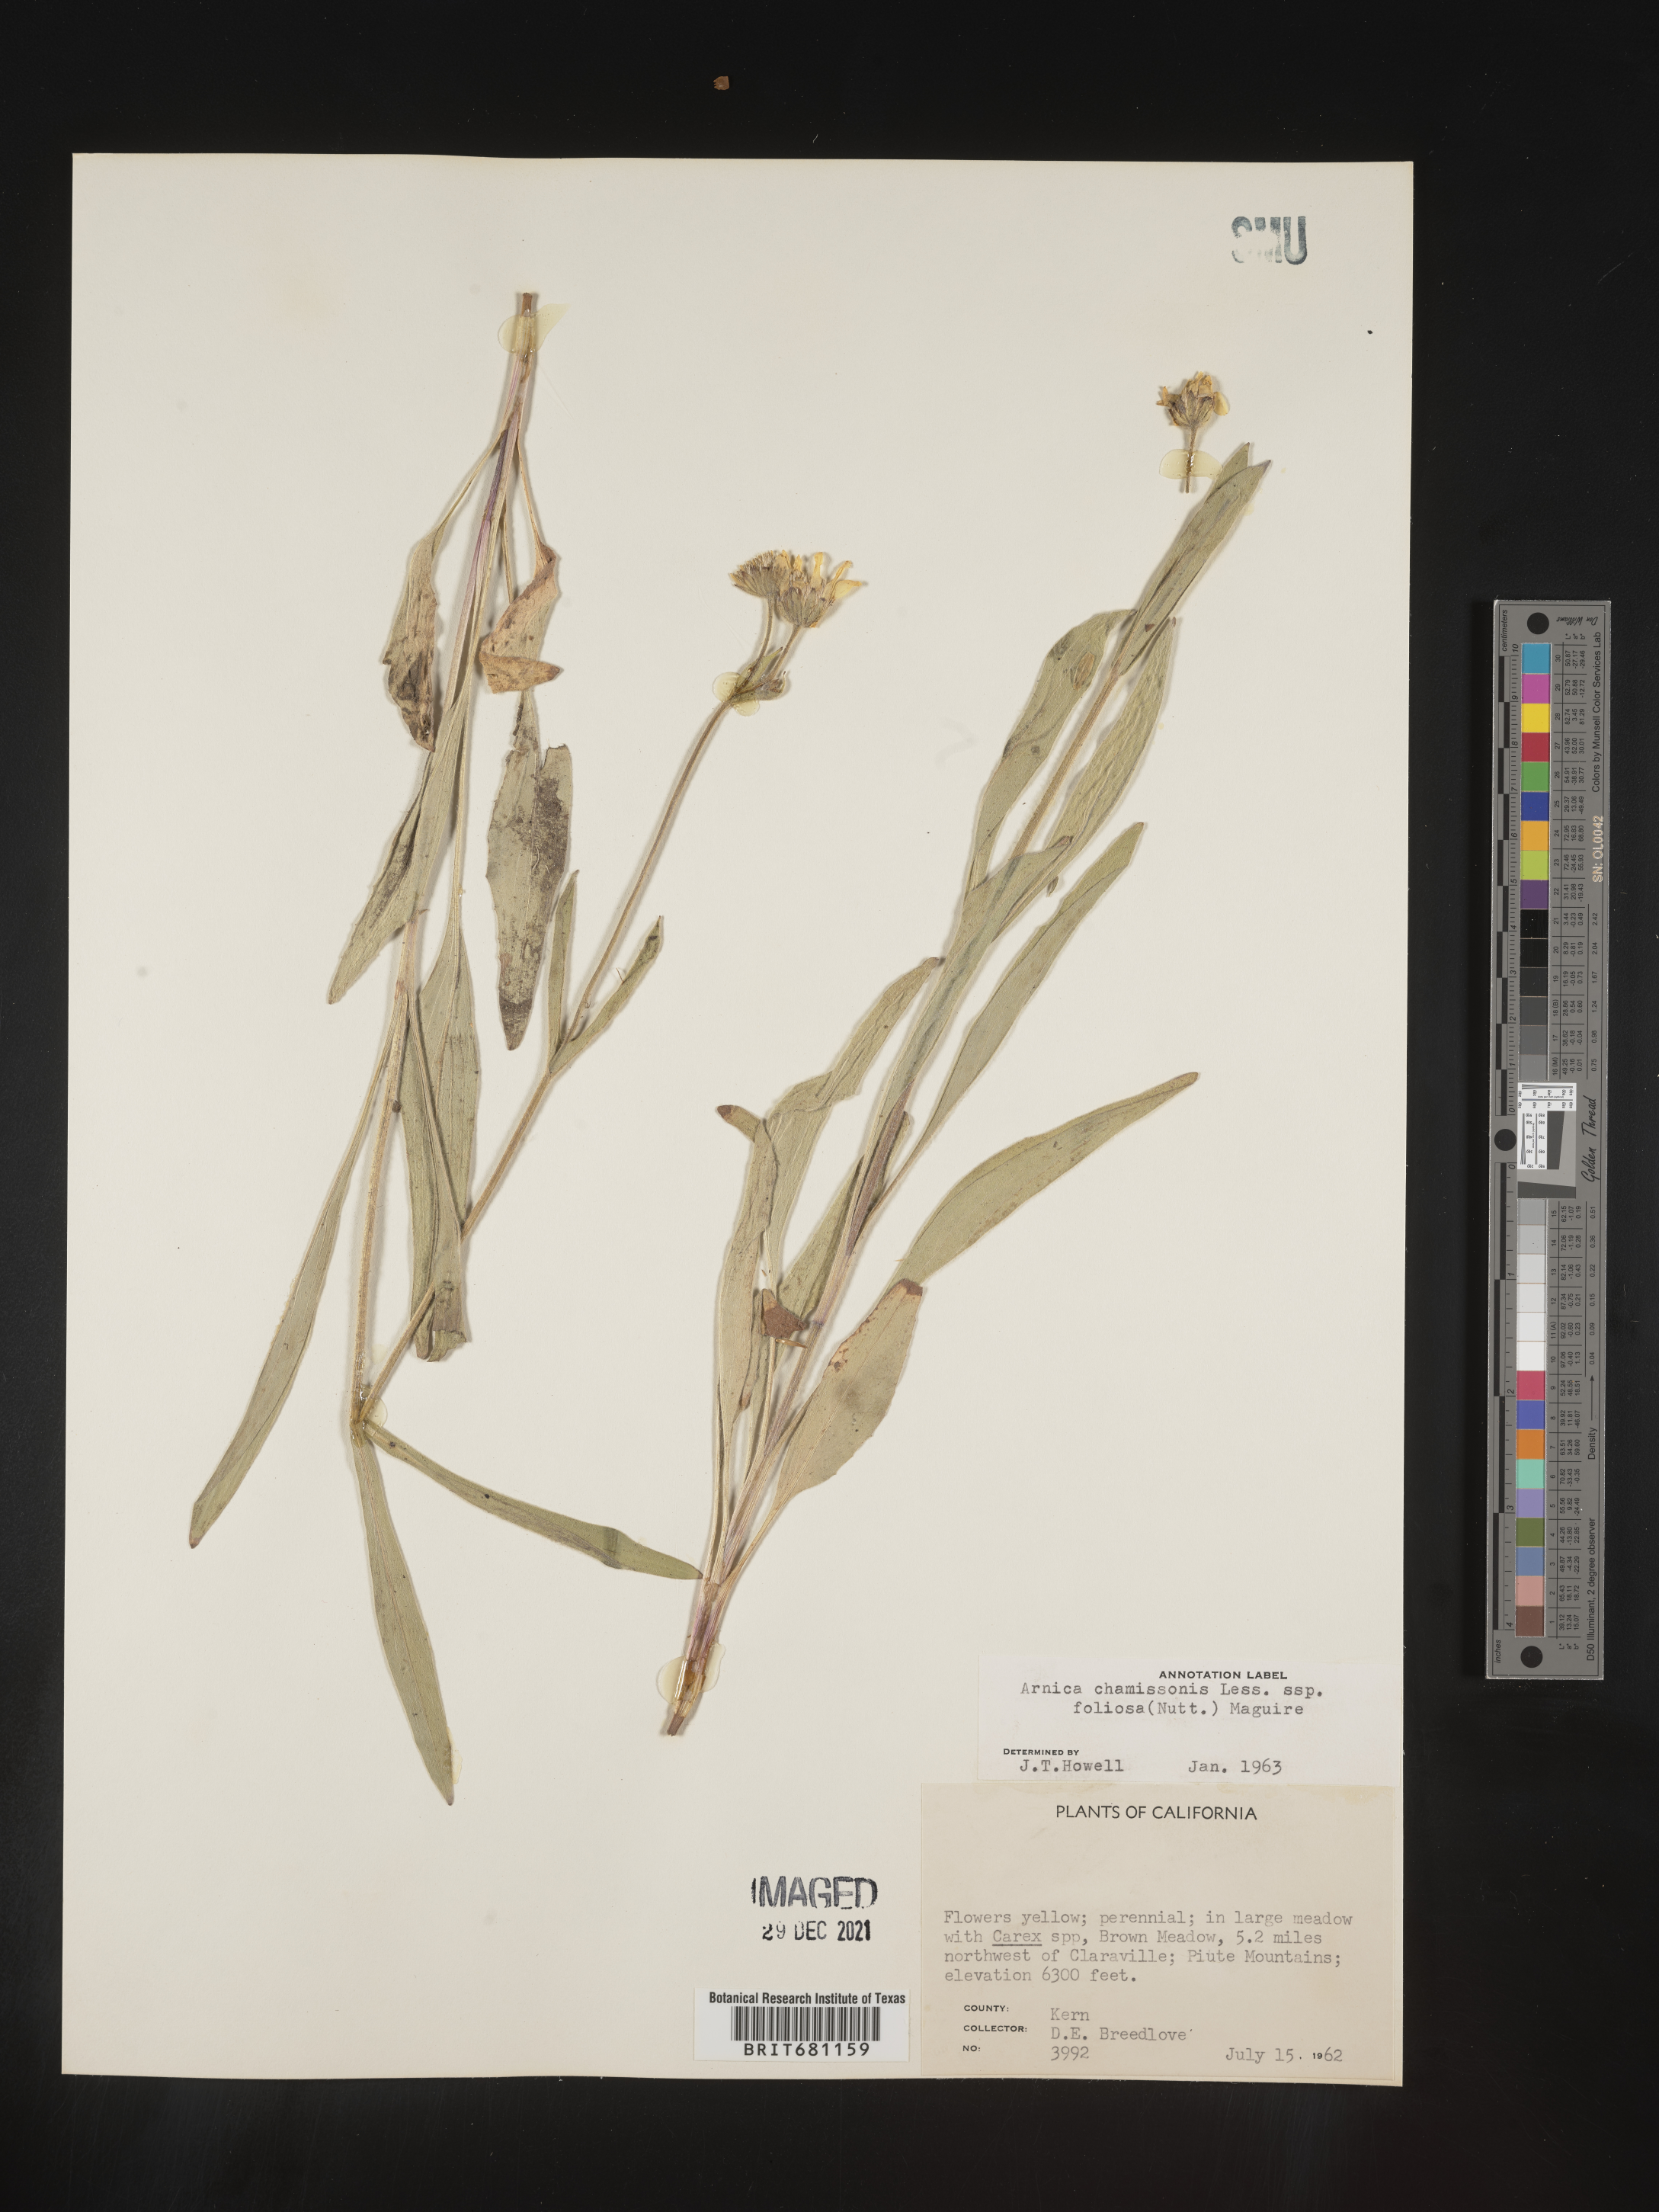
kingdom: Plantae
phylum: Tracheophyta
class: Magnoliopsida
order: Asterales
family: Asteraceae
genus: Arnica
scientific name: Arnica chamissonis
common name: Leafy arnica
